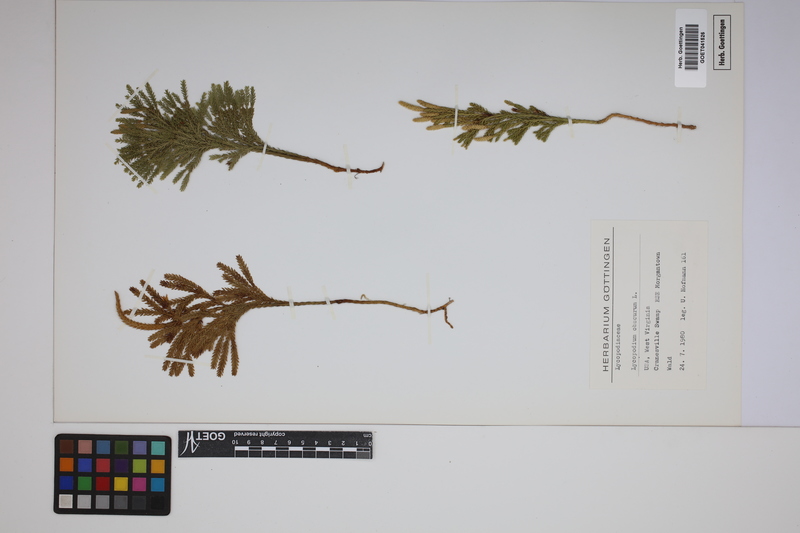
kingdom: Plantae
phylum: Tracheophyta
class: Lycopodiopsida
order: Lycopodiales
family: Lycopodiaceae
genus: Dendrolycopodium
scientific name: Dendrolycopodium obscurum
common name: Common ground-pine
